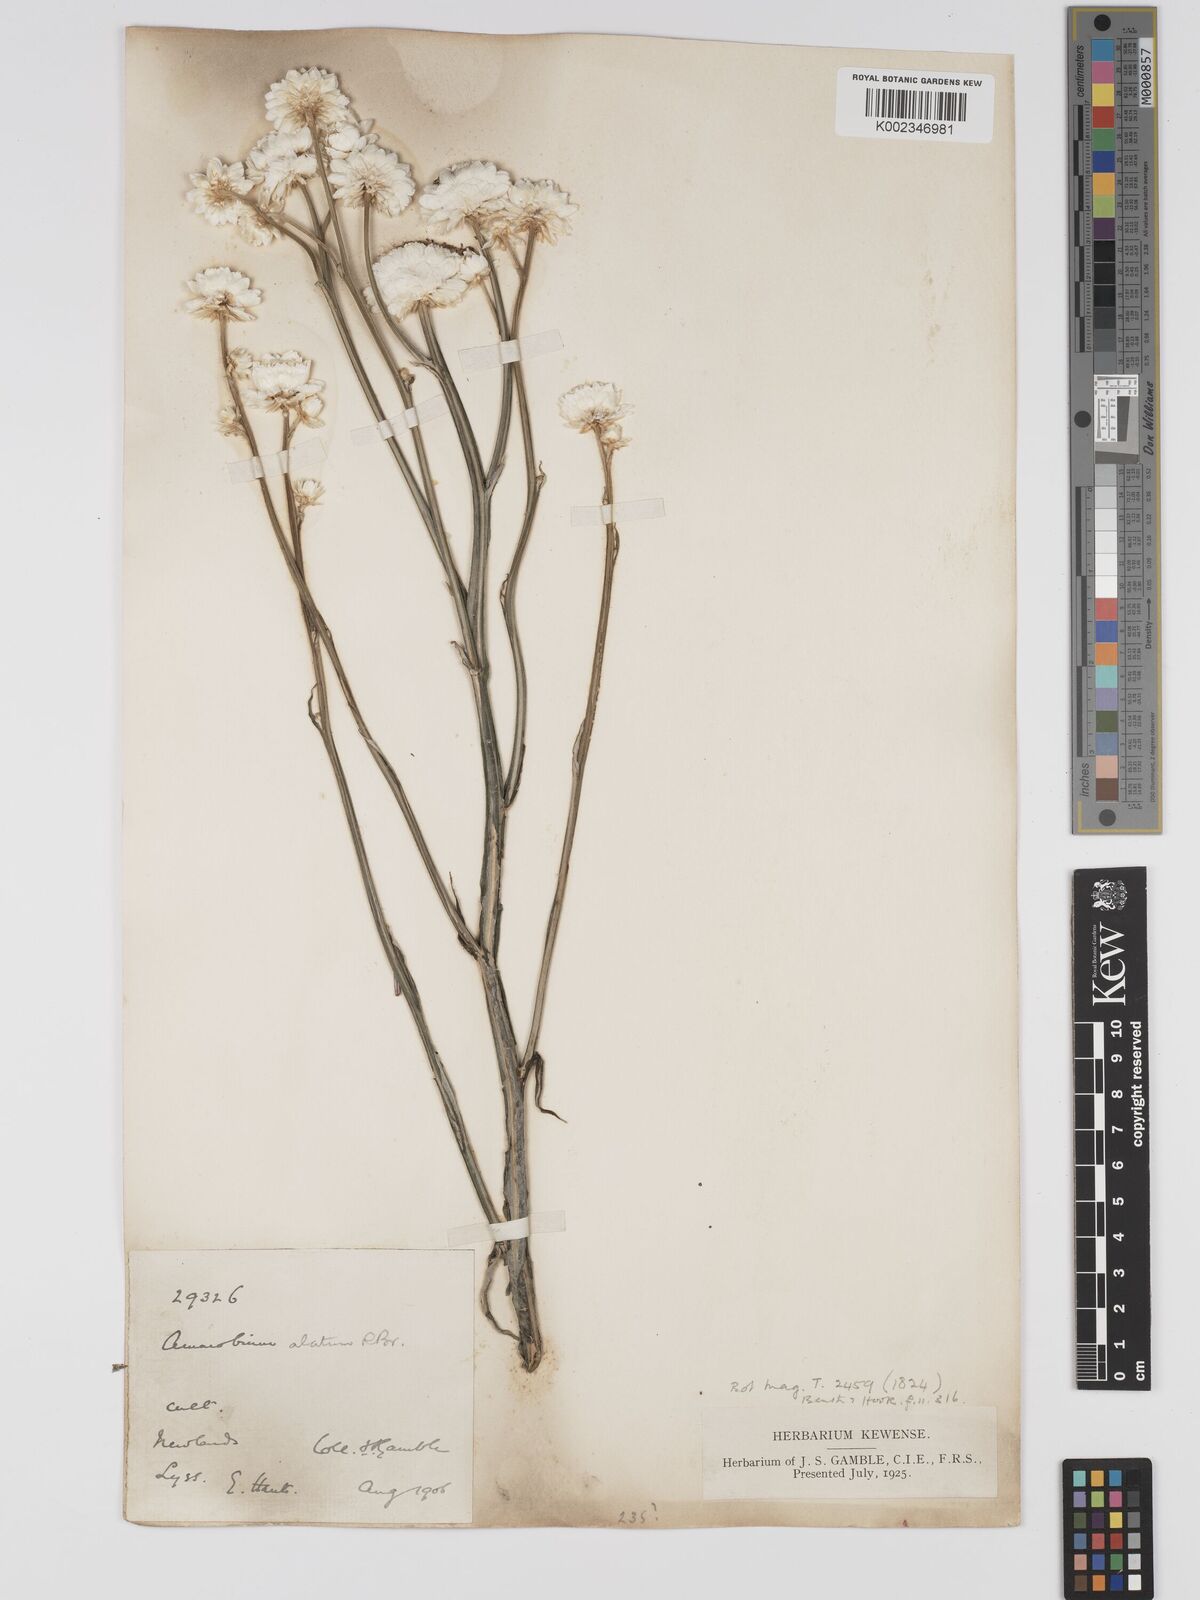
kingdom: Plantae
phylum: Tracheophyta
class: Magnoliopsida
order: Asterales
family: Asteraceae
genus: Ammobium
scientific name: Ammobium alatum
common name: Winged everlasting
